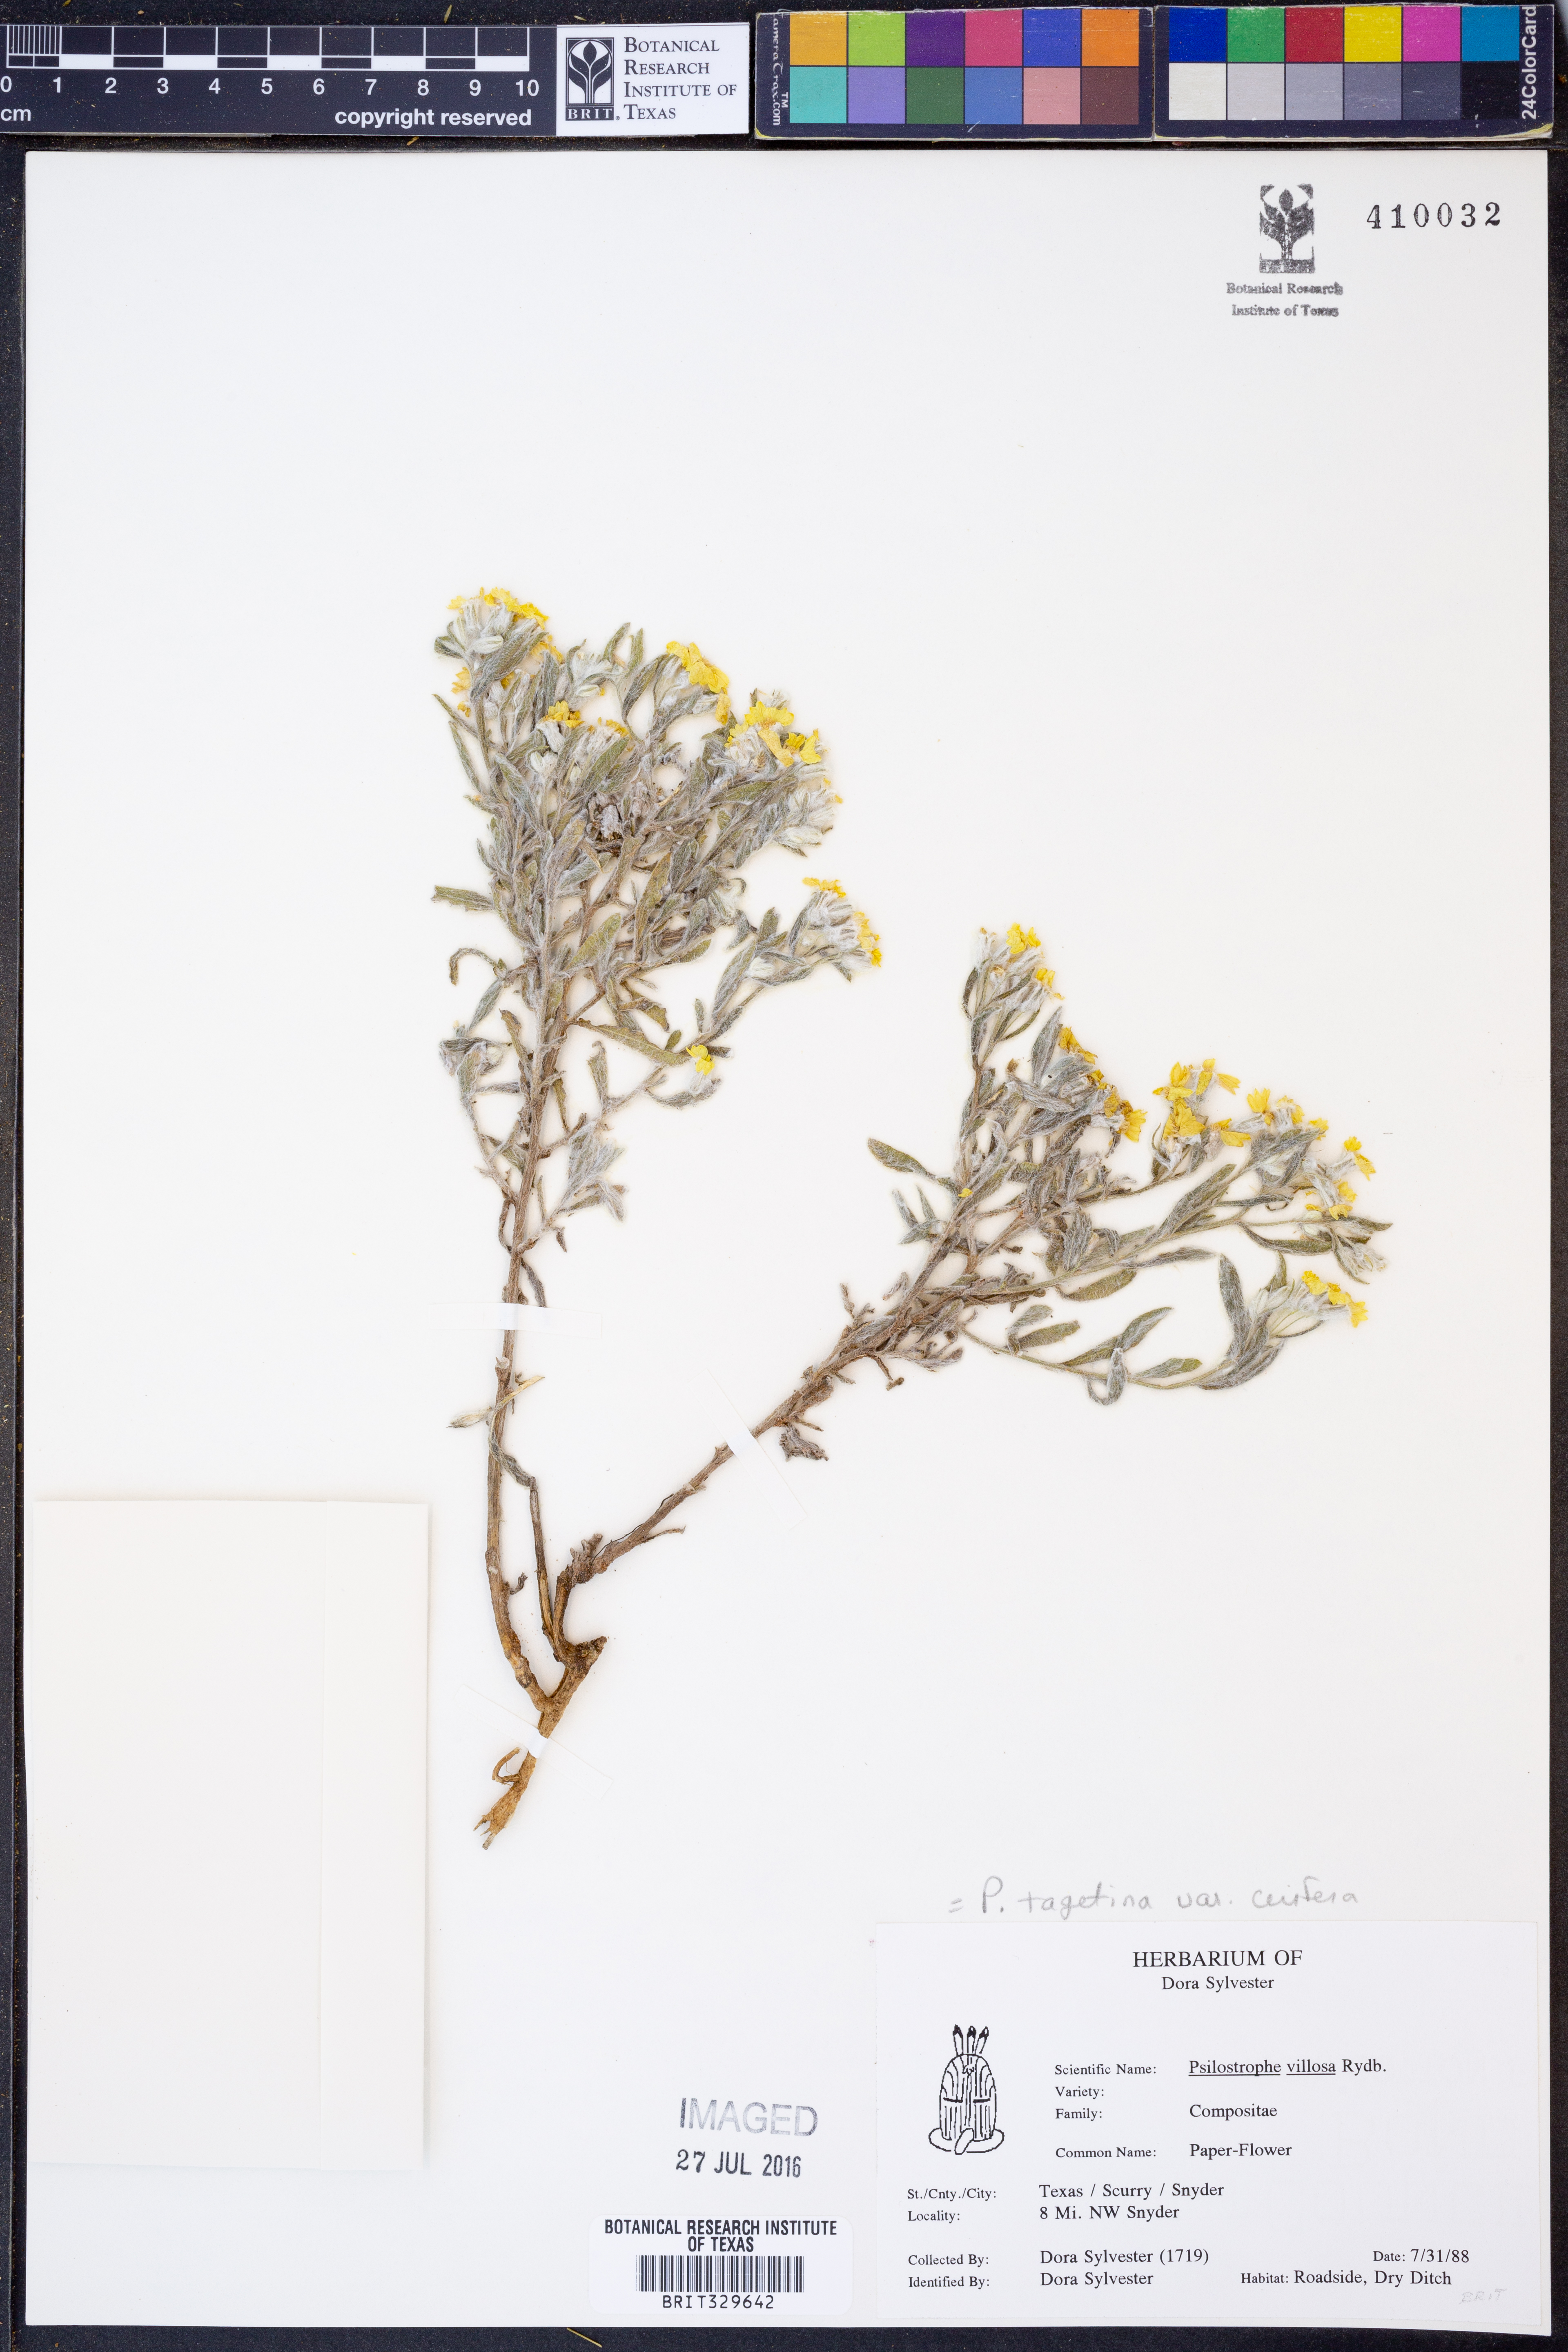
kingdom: Plantae
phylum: Tracheophyta
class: Magnoliopsida
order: Asterales
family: Asteraceae
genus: Psilostrophe
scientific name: Psilostrophe villosa
